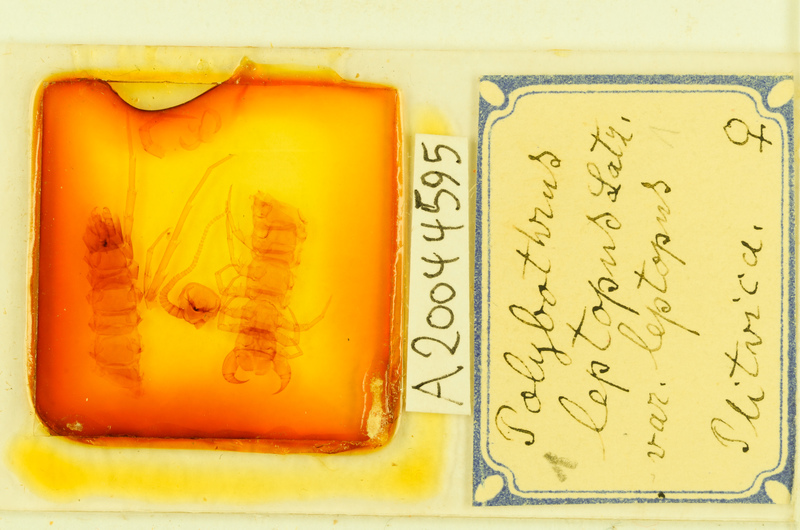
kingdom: Animalia
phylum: Arthropoda
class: Chilopoda
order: Lithobiomorpha
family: Lithobiidae
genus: Polybothrus
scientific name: Polybothrus leptopus
